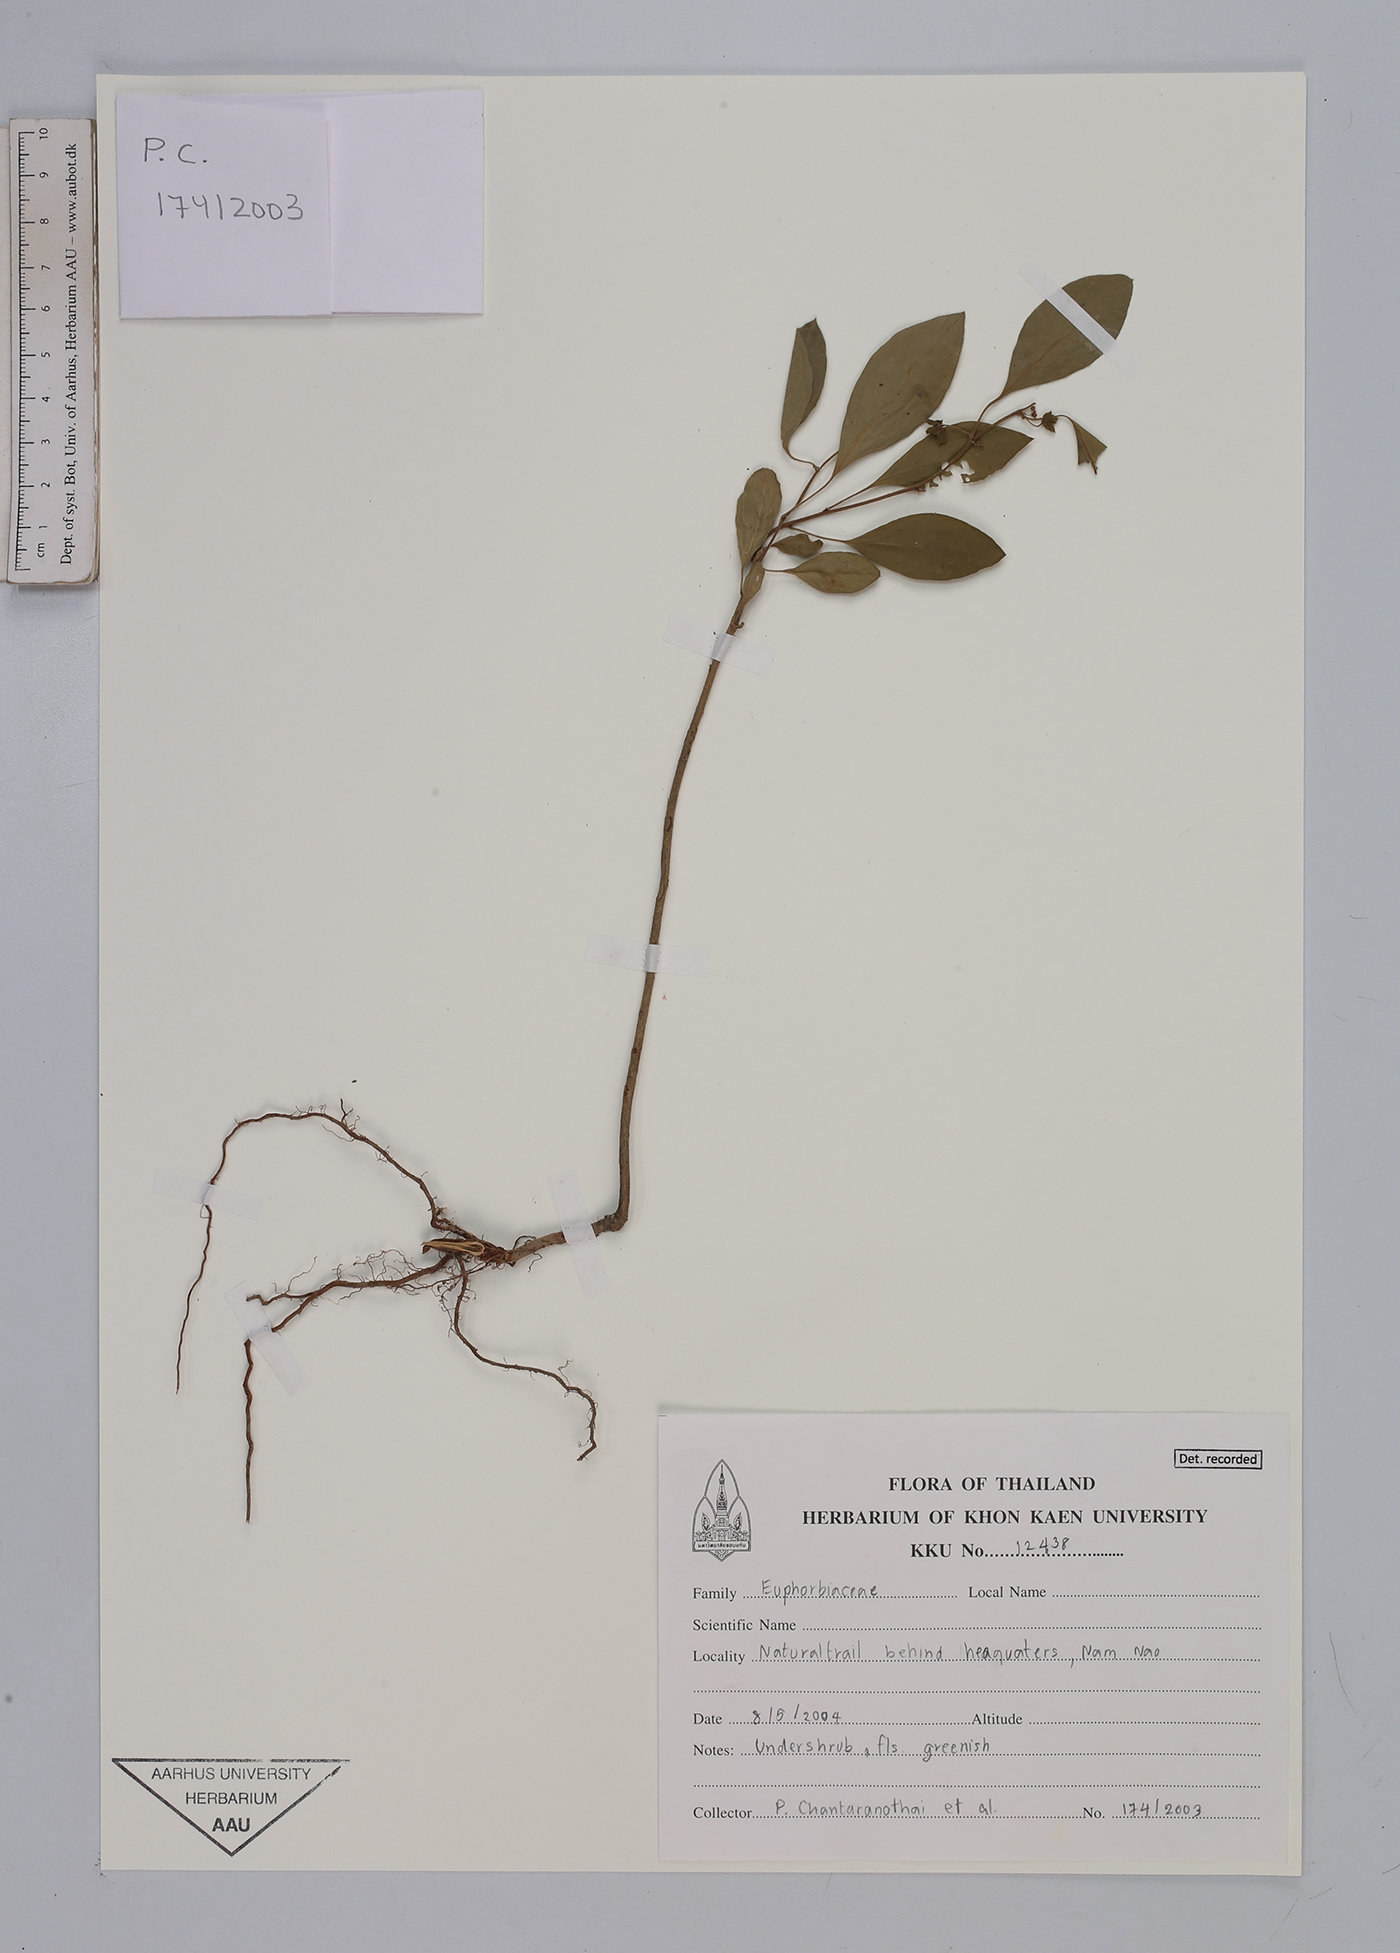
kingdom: Plantae
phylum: Tracheophyta
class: Magnoliopsida
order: Malpighiales
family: Euphorbiaceae
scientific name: Euphorbiaceae
